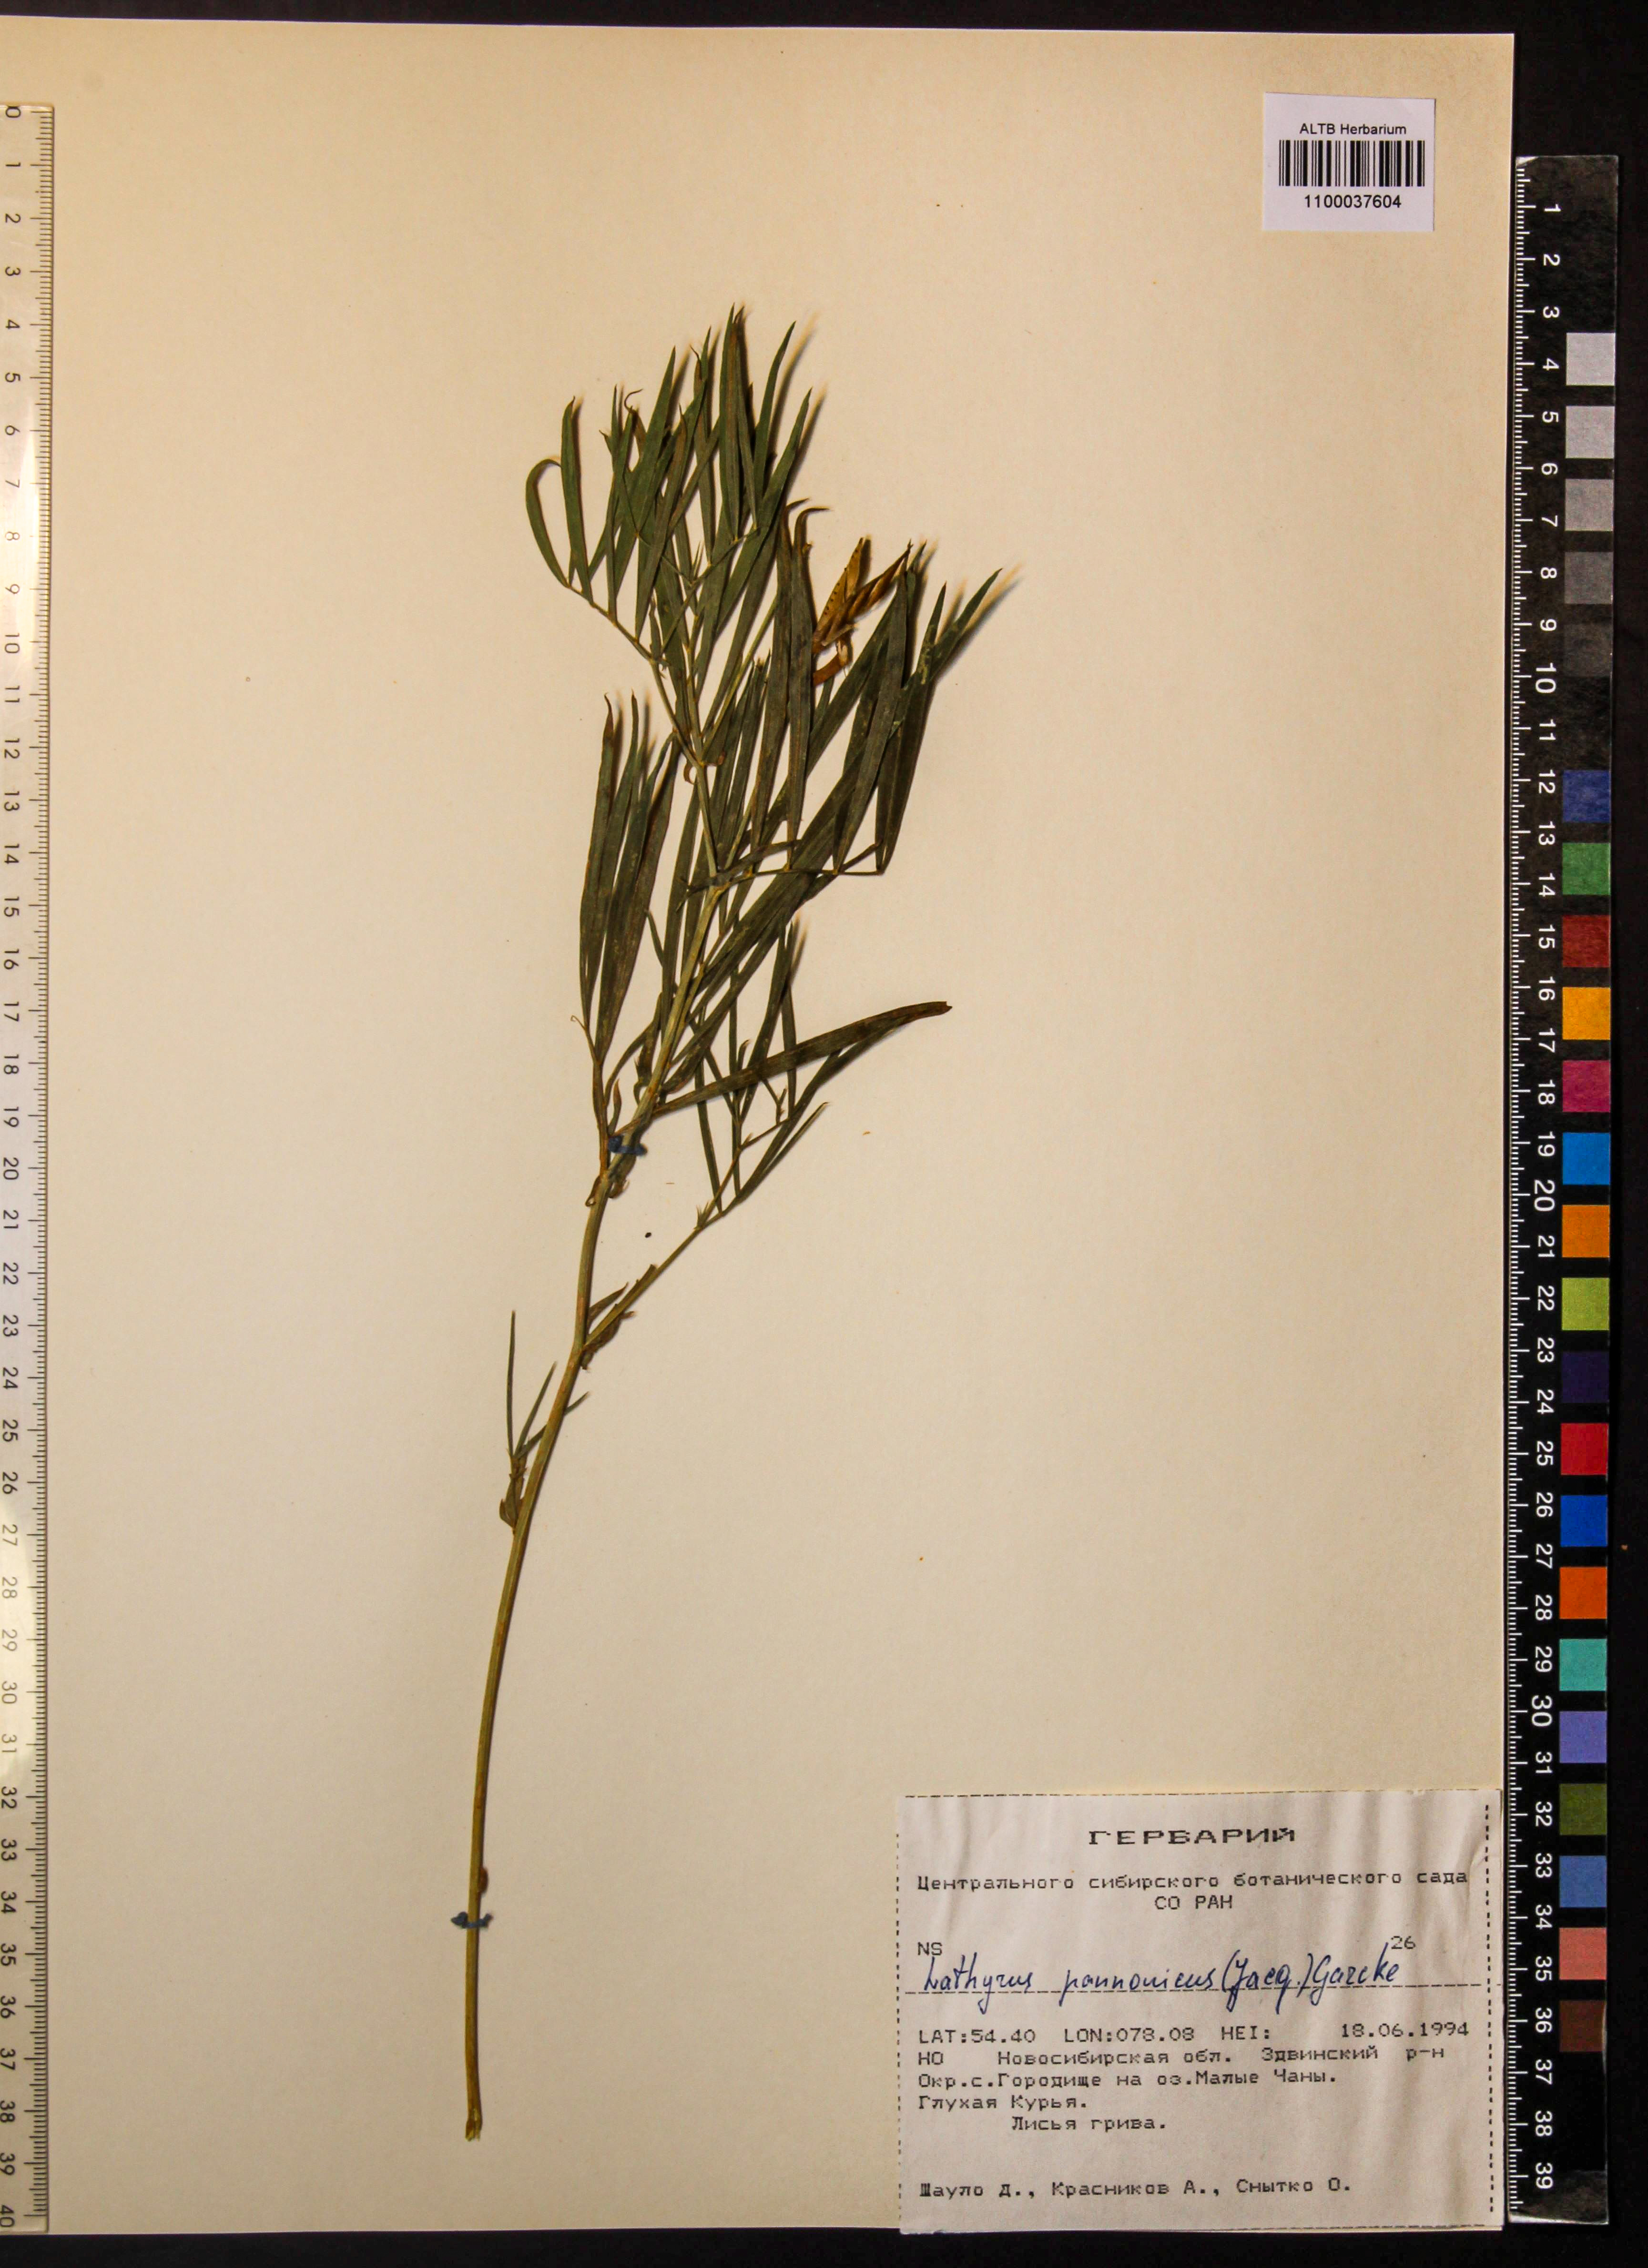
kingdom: Plantae
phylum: Tracheophyta
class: Magnoliopsida
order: Fabales
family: Fabaceae
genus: Lathyrus
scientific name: Lathyrus pannonicus
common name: Pea
